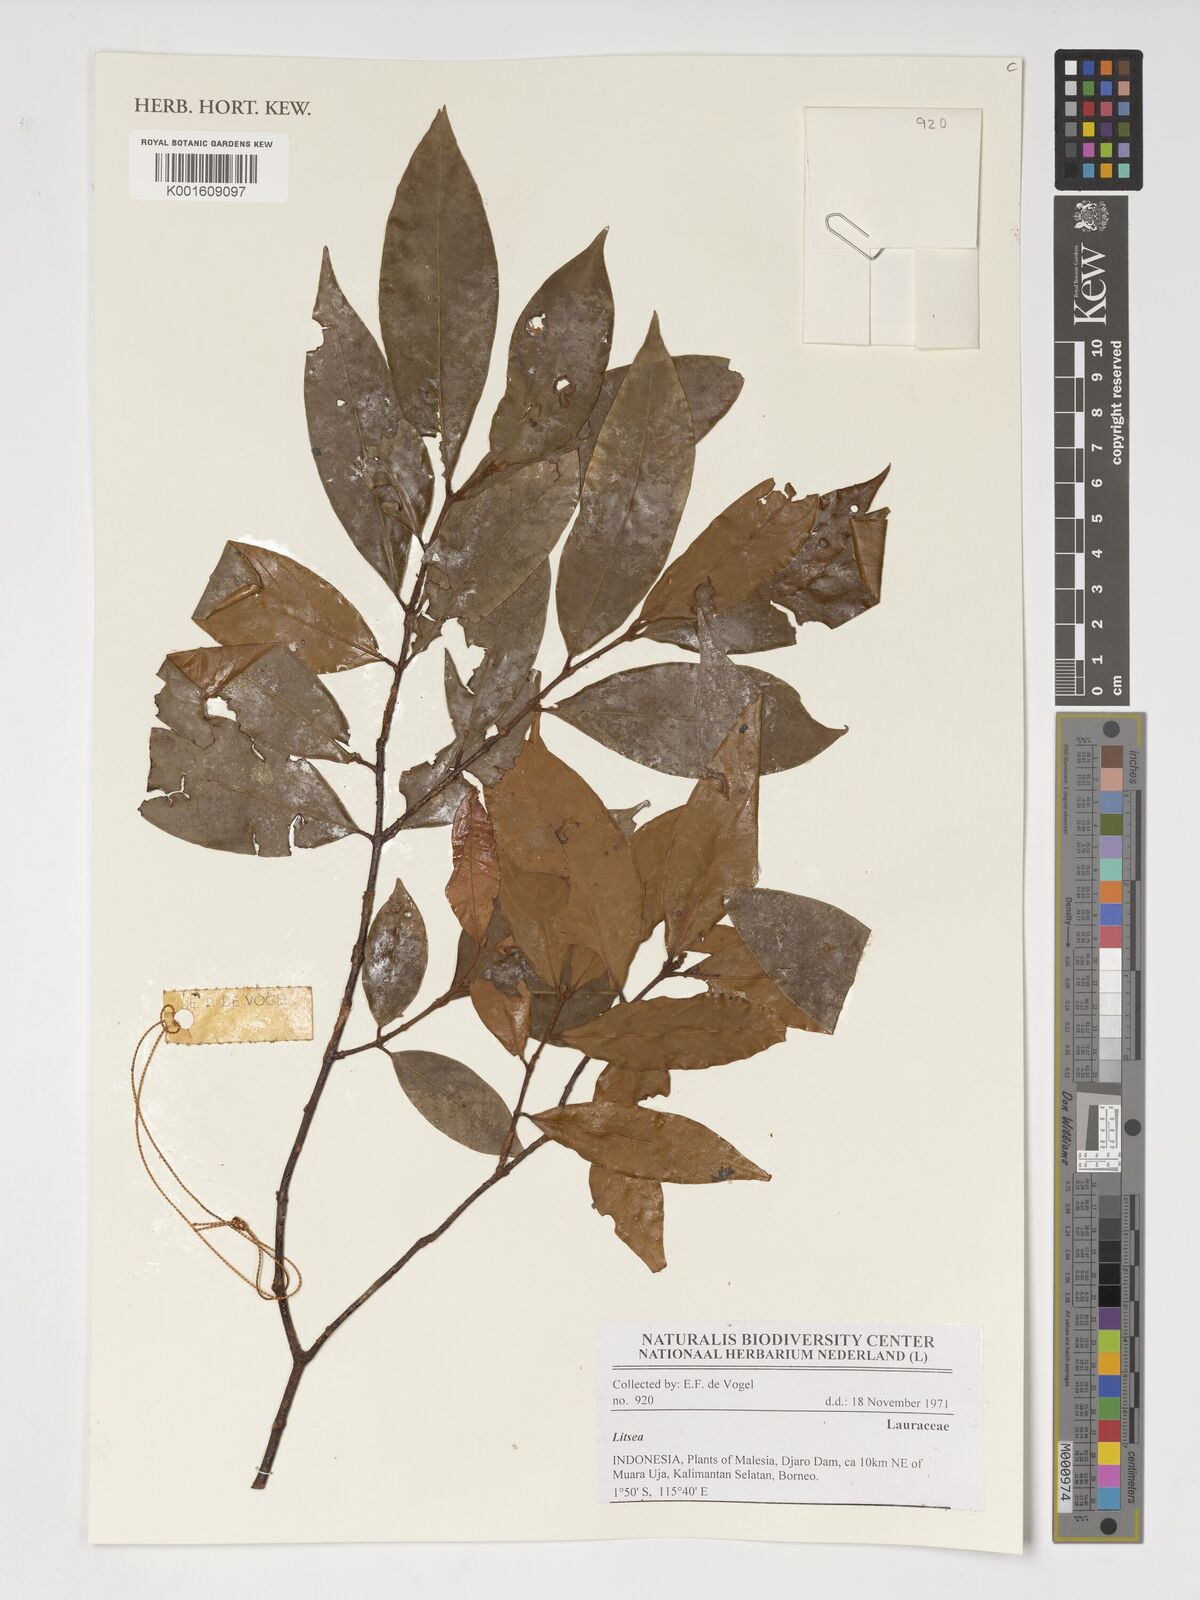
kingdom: Plantae
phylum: Tracheophyta
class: Magnoliopsida
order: Laurales
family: Lauraceae
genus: Litsea
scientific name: Litsea
